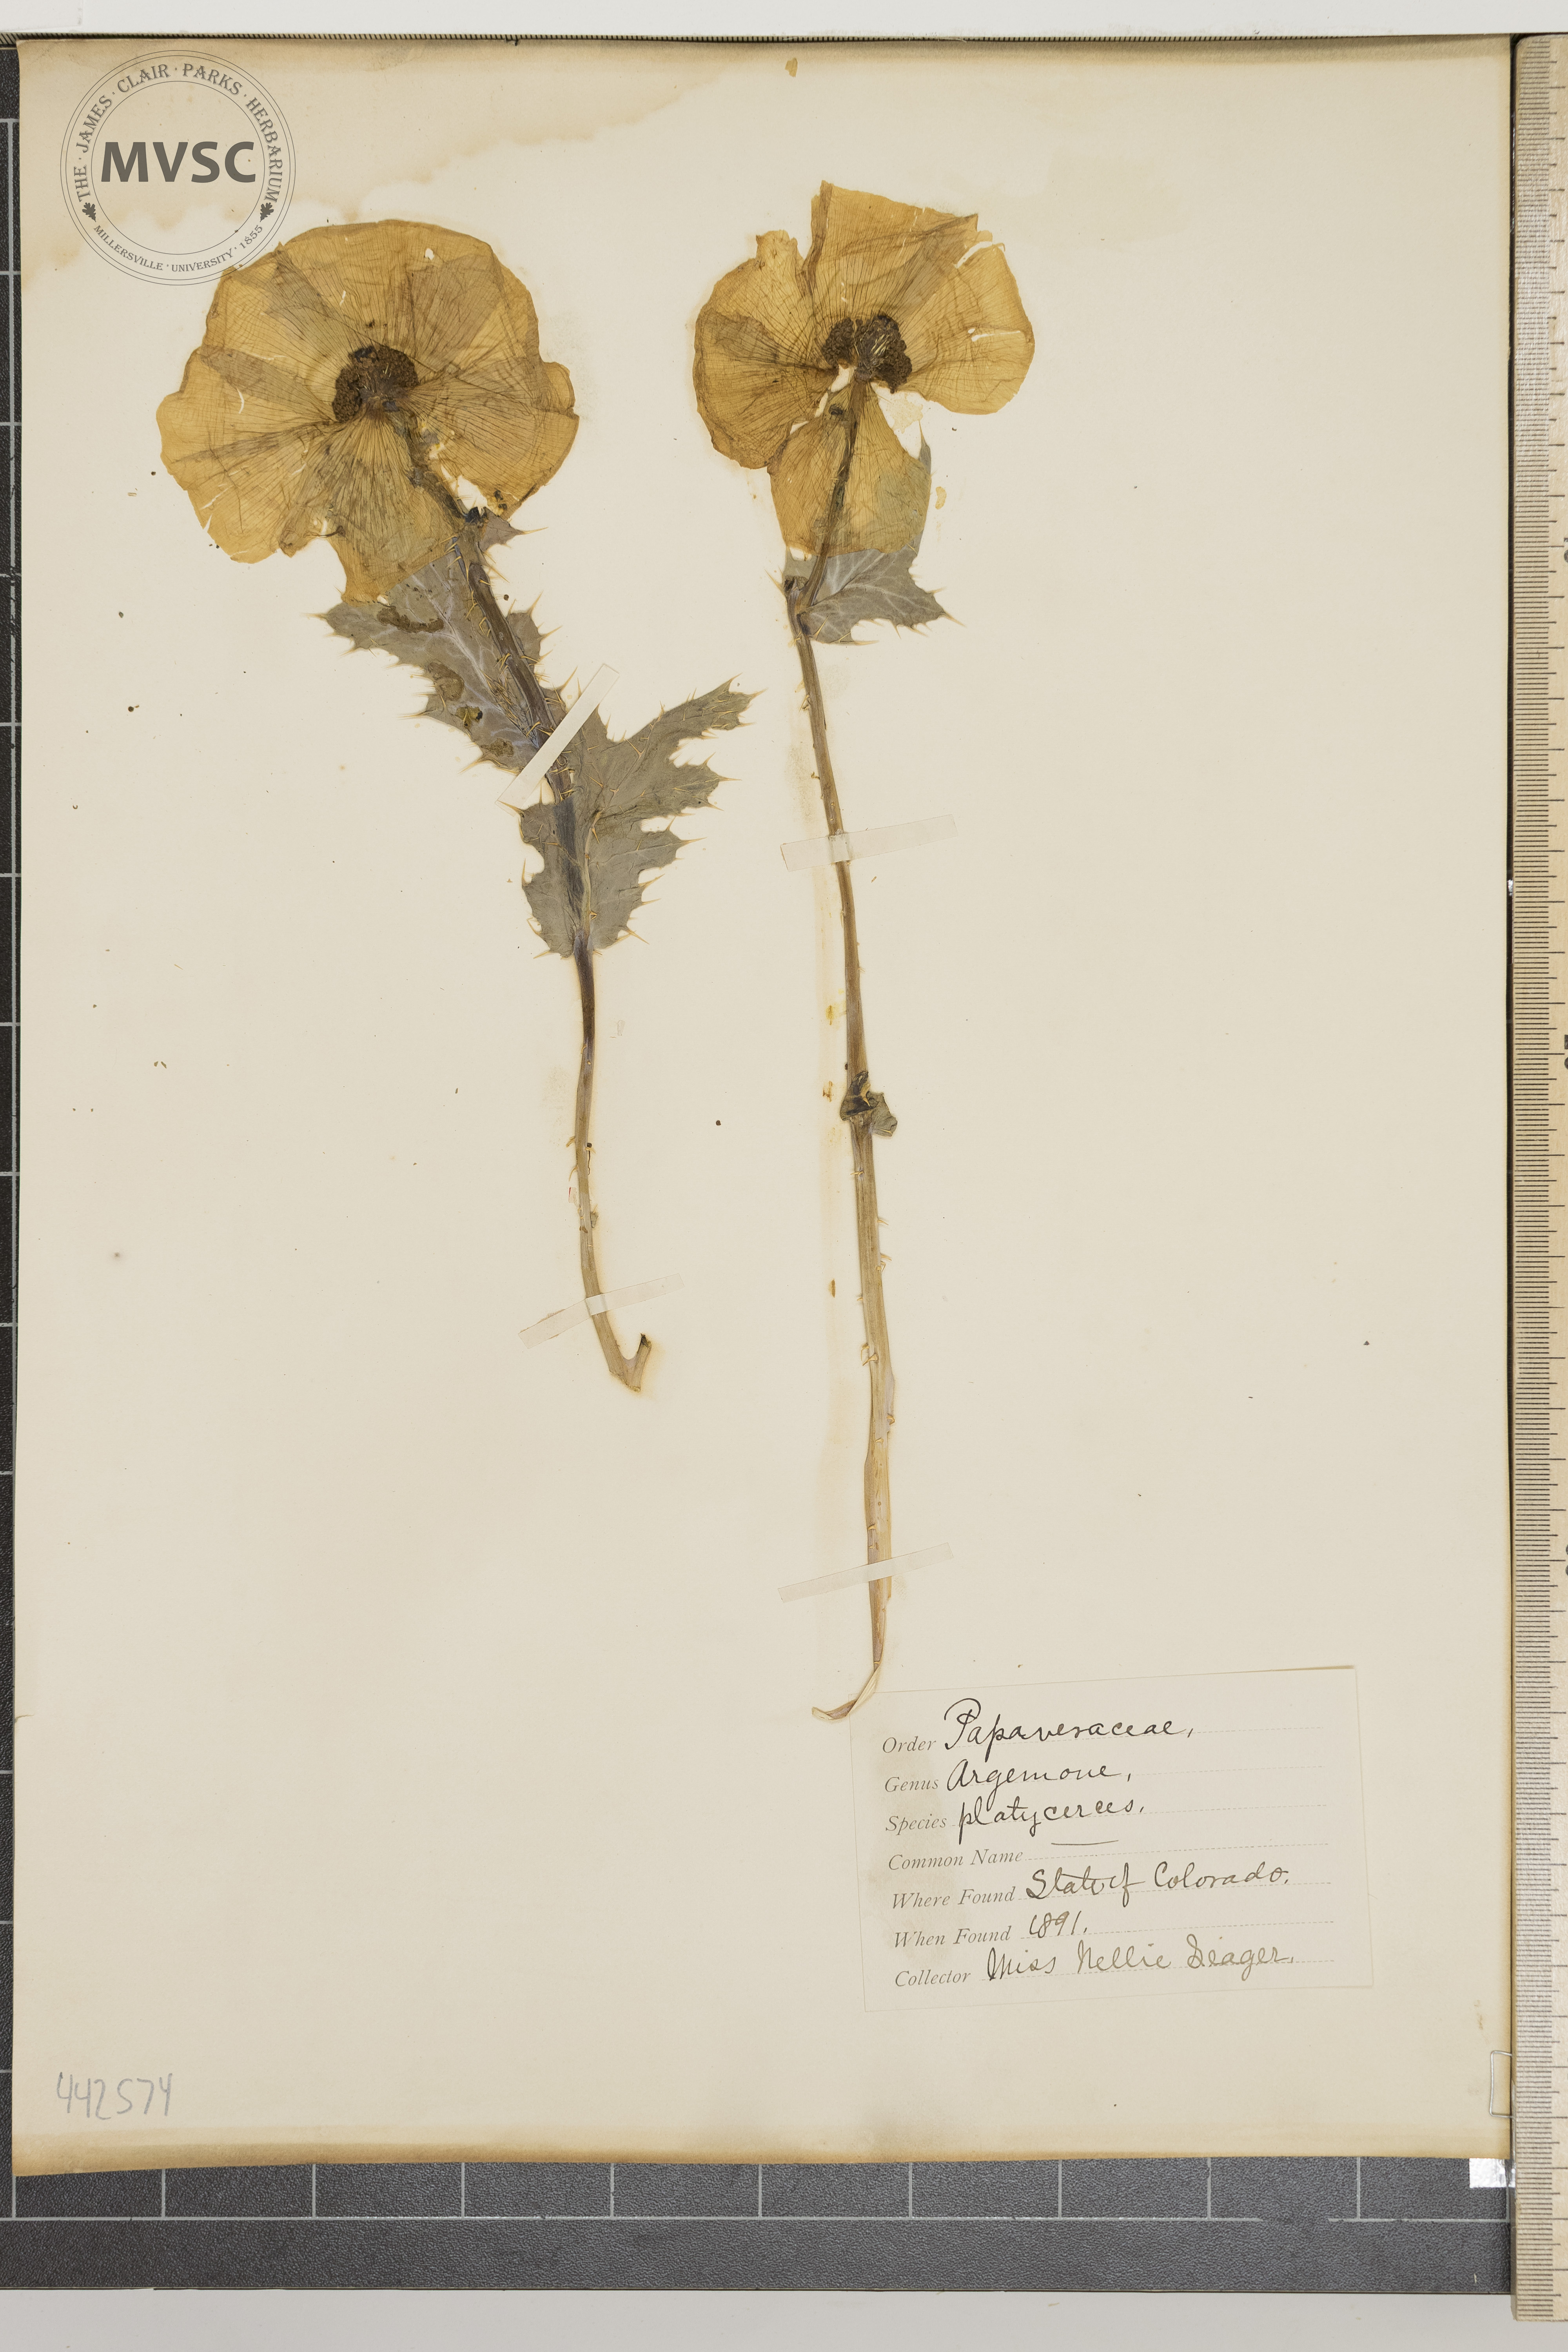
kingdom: Plantae
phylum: Tracheophyta
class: Magnoliopsida
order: Ranunculales
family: Papaveraceae
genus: Argemone
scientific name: Argemone platyceras
